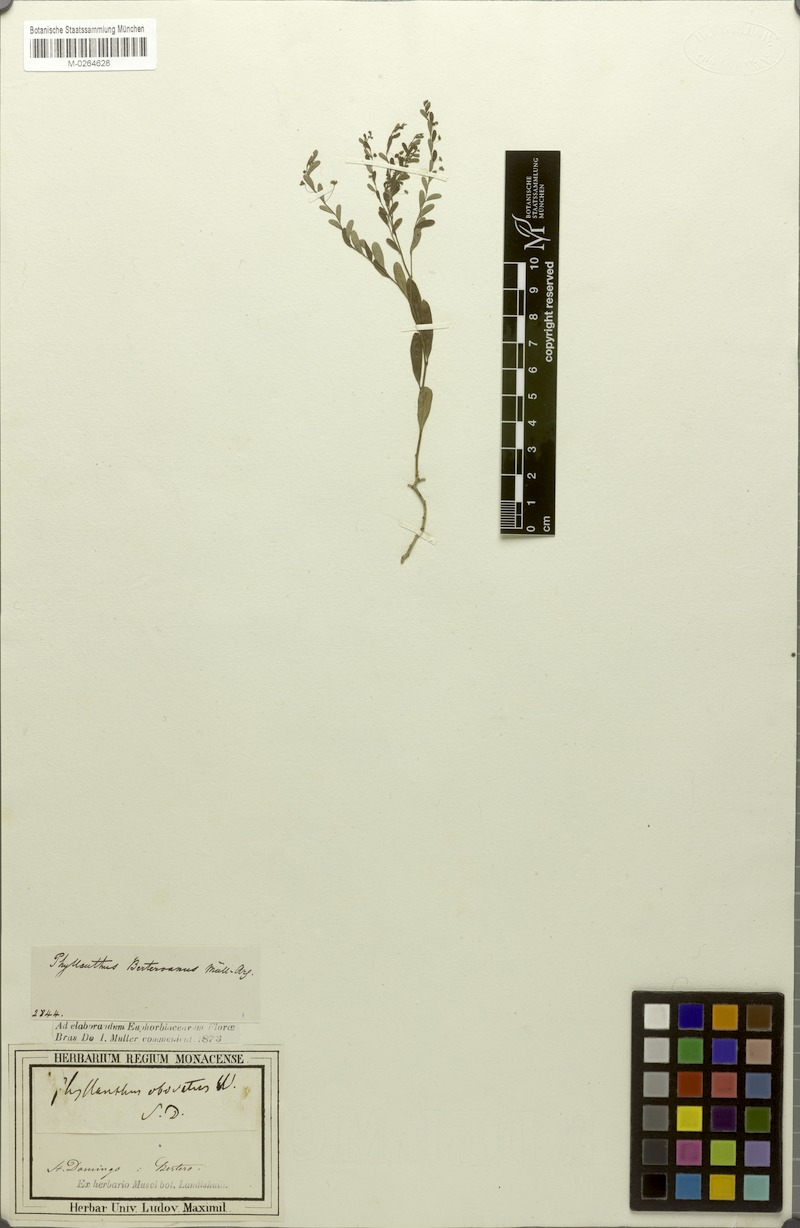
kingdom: Plantae
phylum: Tracheophyta
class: Magnoliopsida
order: Malpighiales
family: Phyllanthaceae
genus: Phyllanthus
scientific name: Phyllanthus berteroanus
